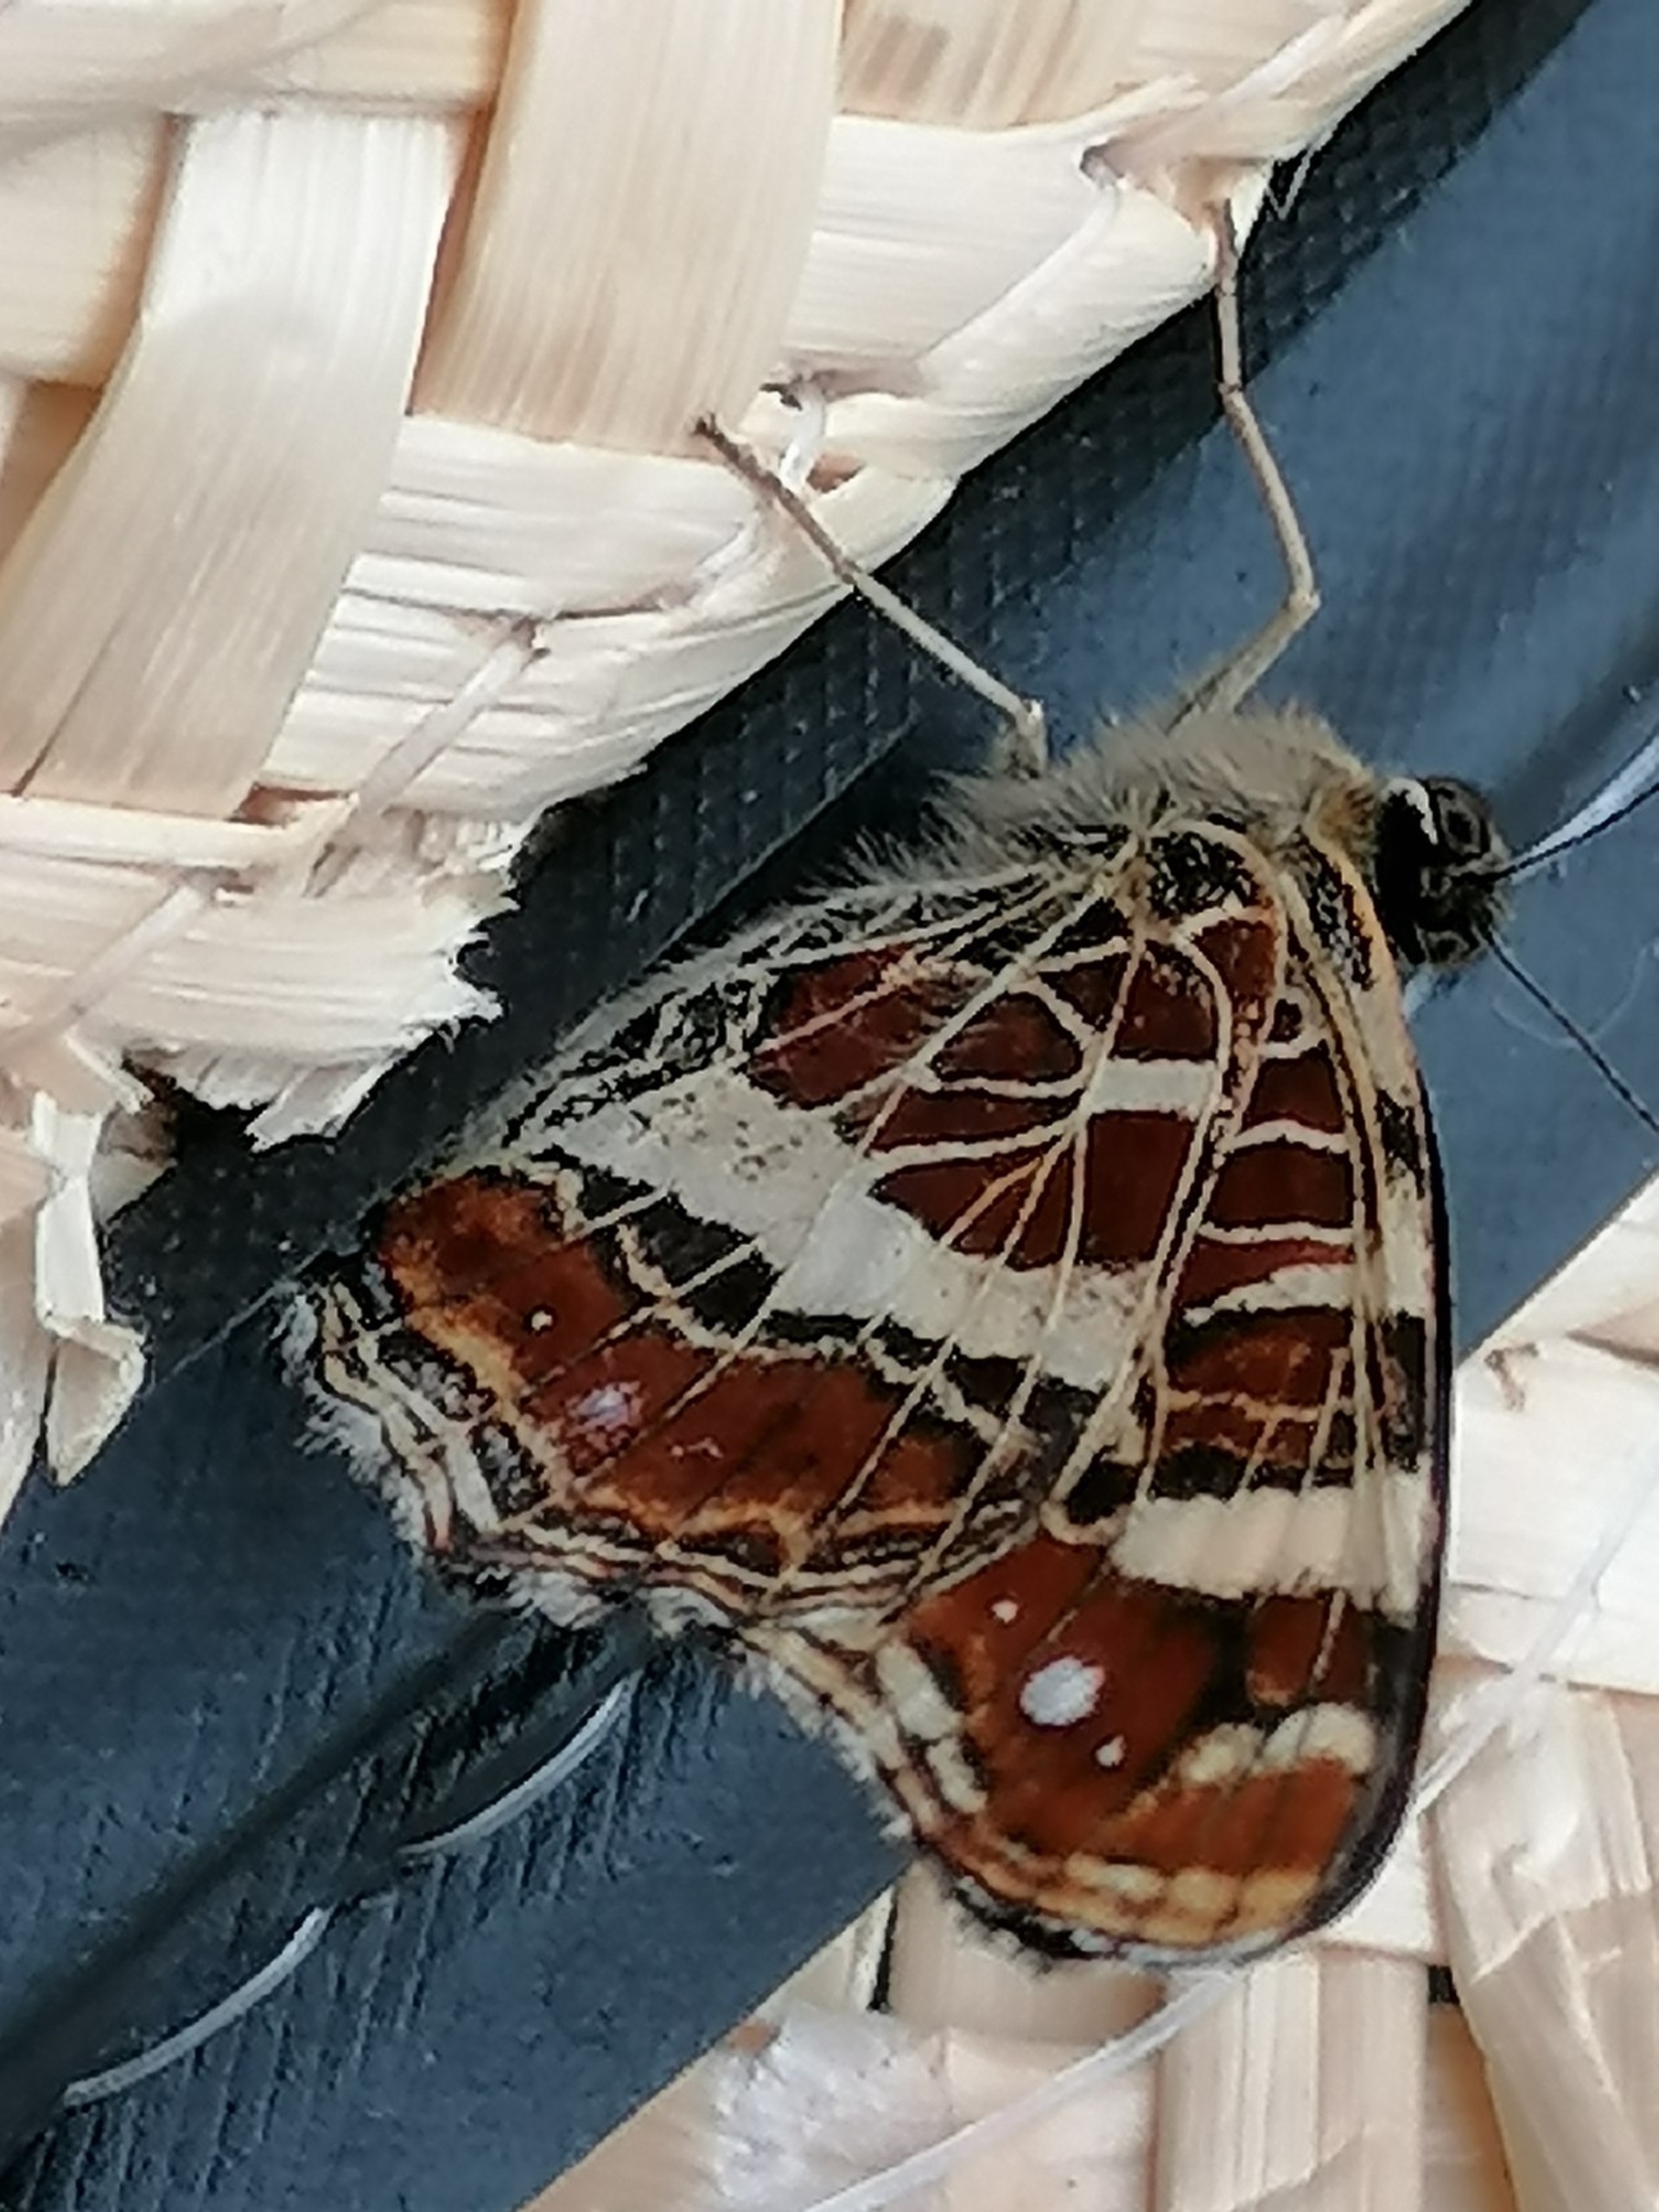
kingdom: Animalia
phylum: Arthropoda
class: Insecta
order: Lepidoptera
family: Nymphalidae
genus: Araschnia
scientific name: Araschnia levana
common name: Nældesommerfugl
